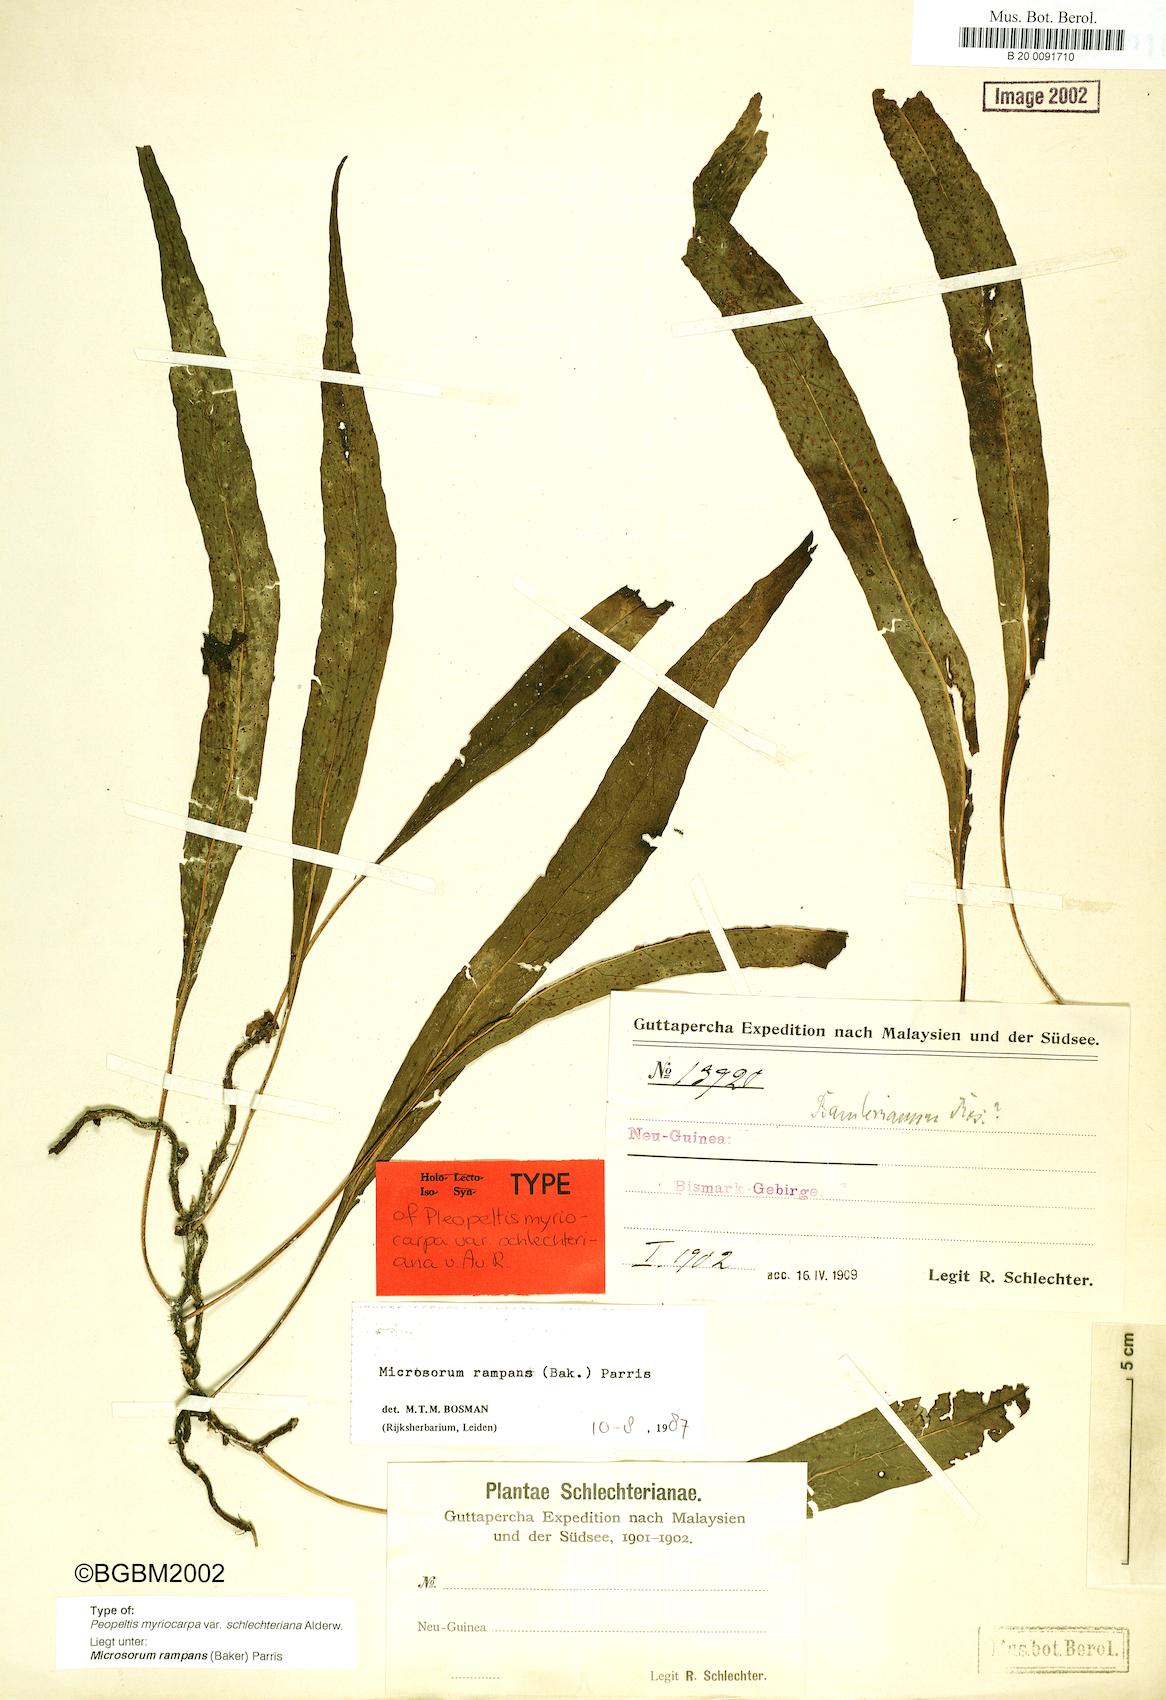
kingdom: Plantae
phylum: Tracheophyta
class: Polypodiopsida
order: Polypodiales
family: Polypodiaceae
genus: Microsorum
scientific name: Microsorum rampans
